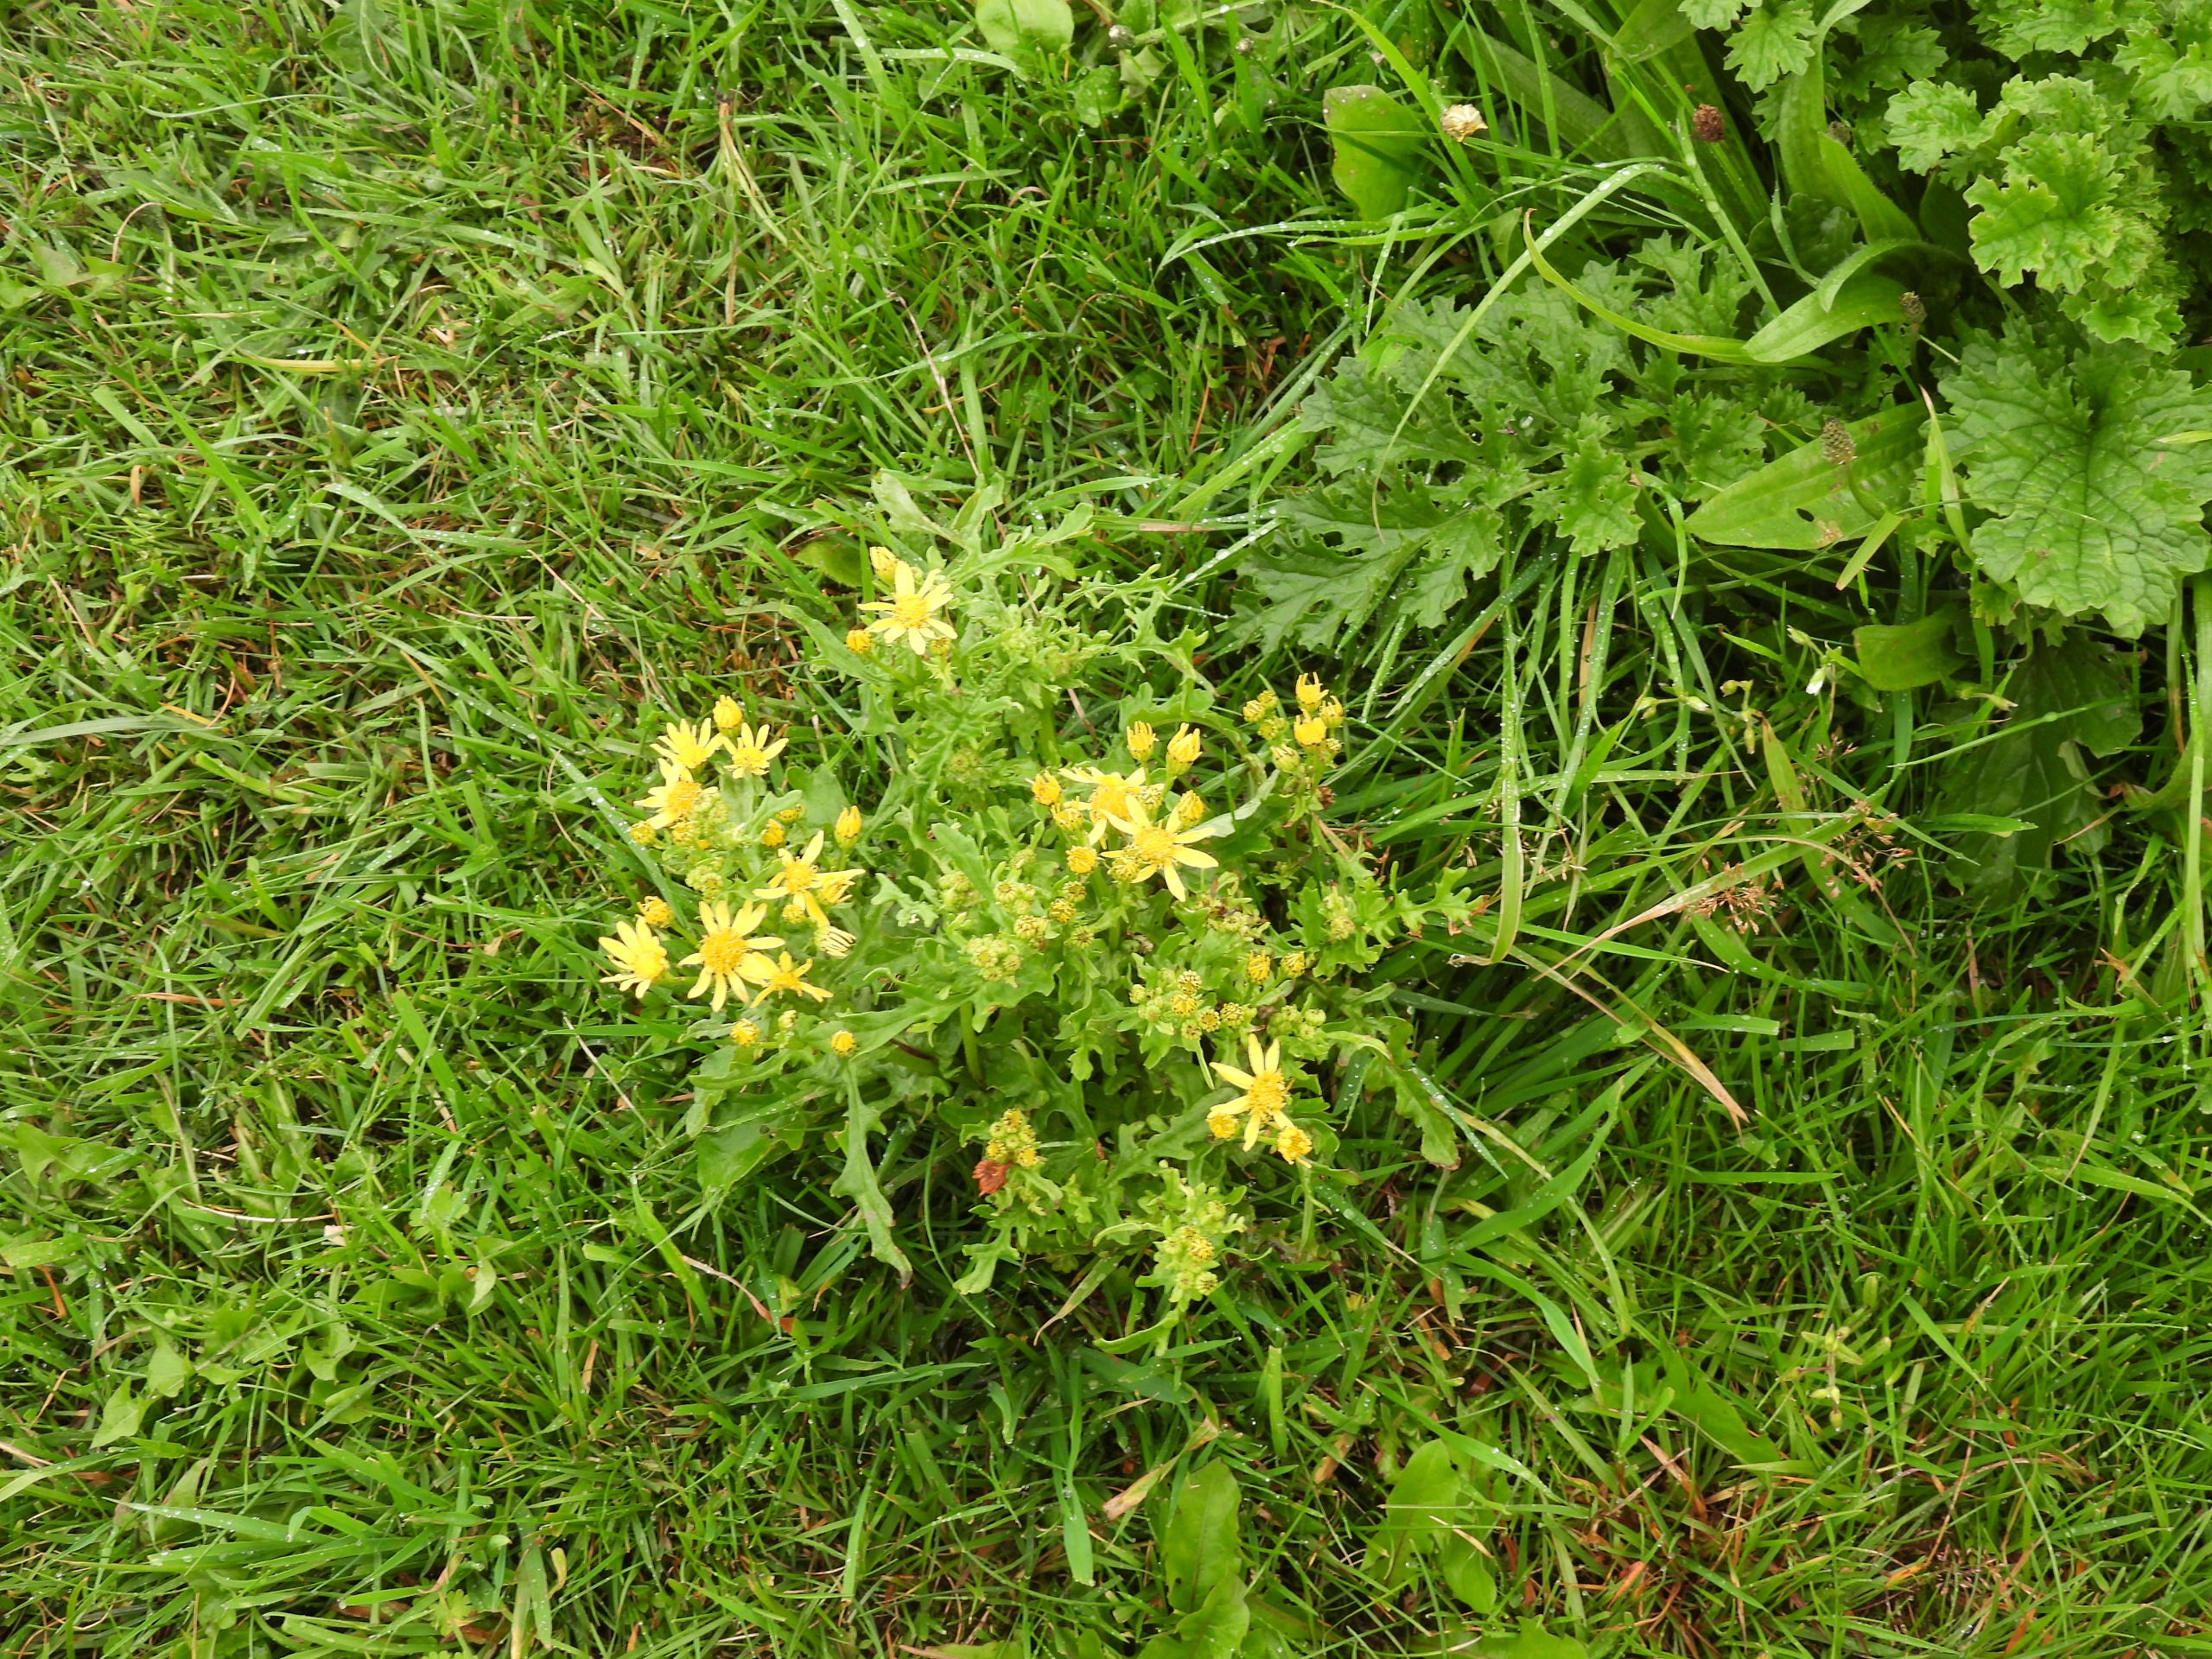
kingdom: Plantae
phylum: Tracheophyta
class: Magnoliopsida
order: Asterales
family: Asteraceae
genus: Jacobaea
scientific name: Jacobaea vulgaris
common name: Eng-brandbæger
